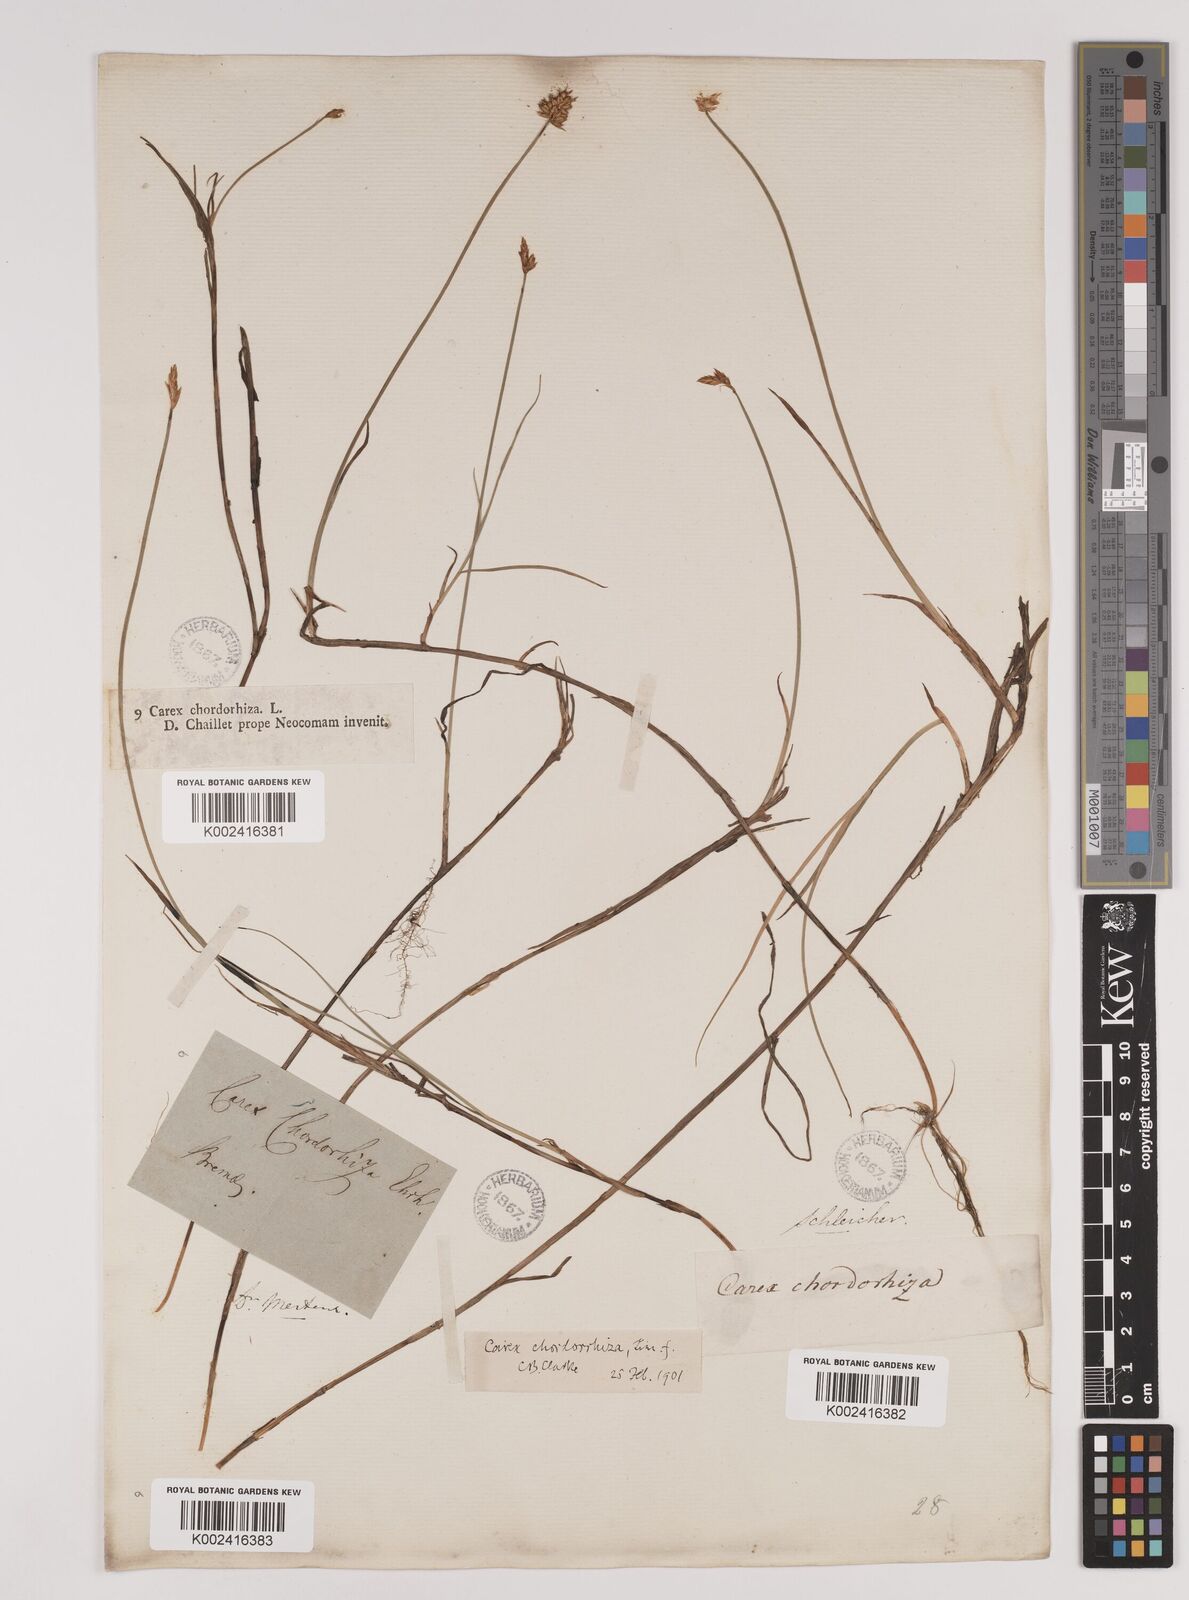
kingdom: Plantae
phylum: Tracheophyta
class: Liliopsida
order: Poales
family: Cyperaceae
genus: Carex
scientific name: Carex chordorrhiza
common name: String sedge
